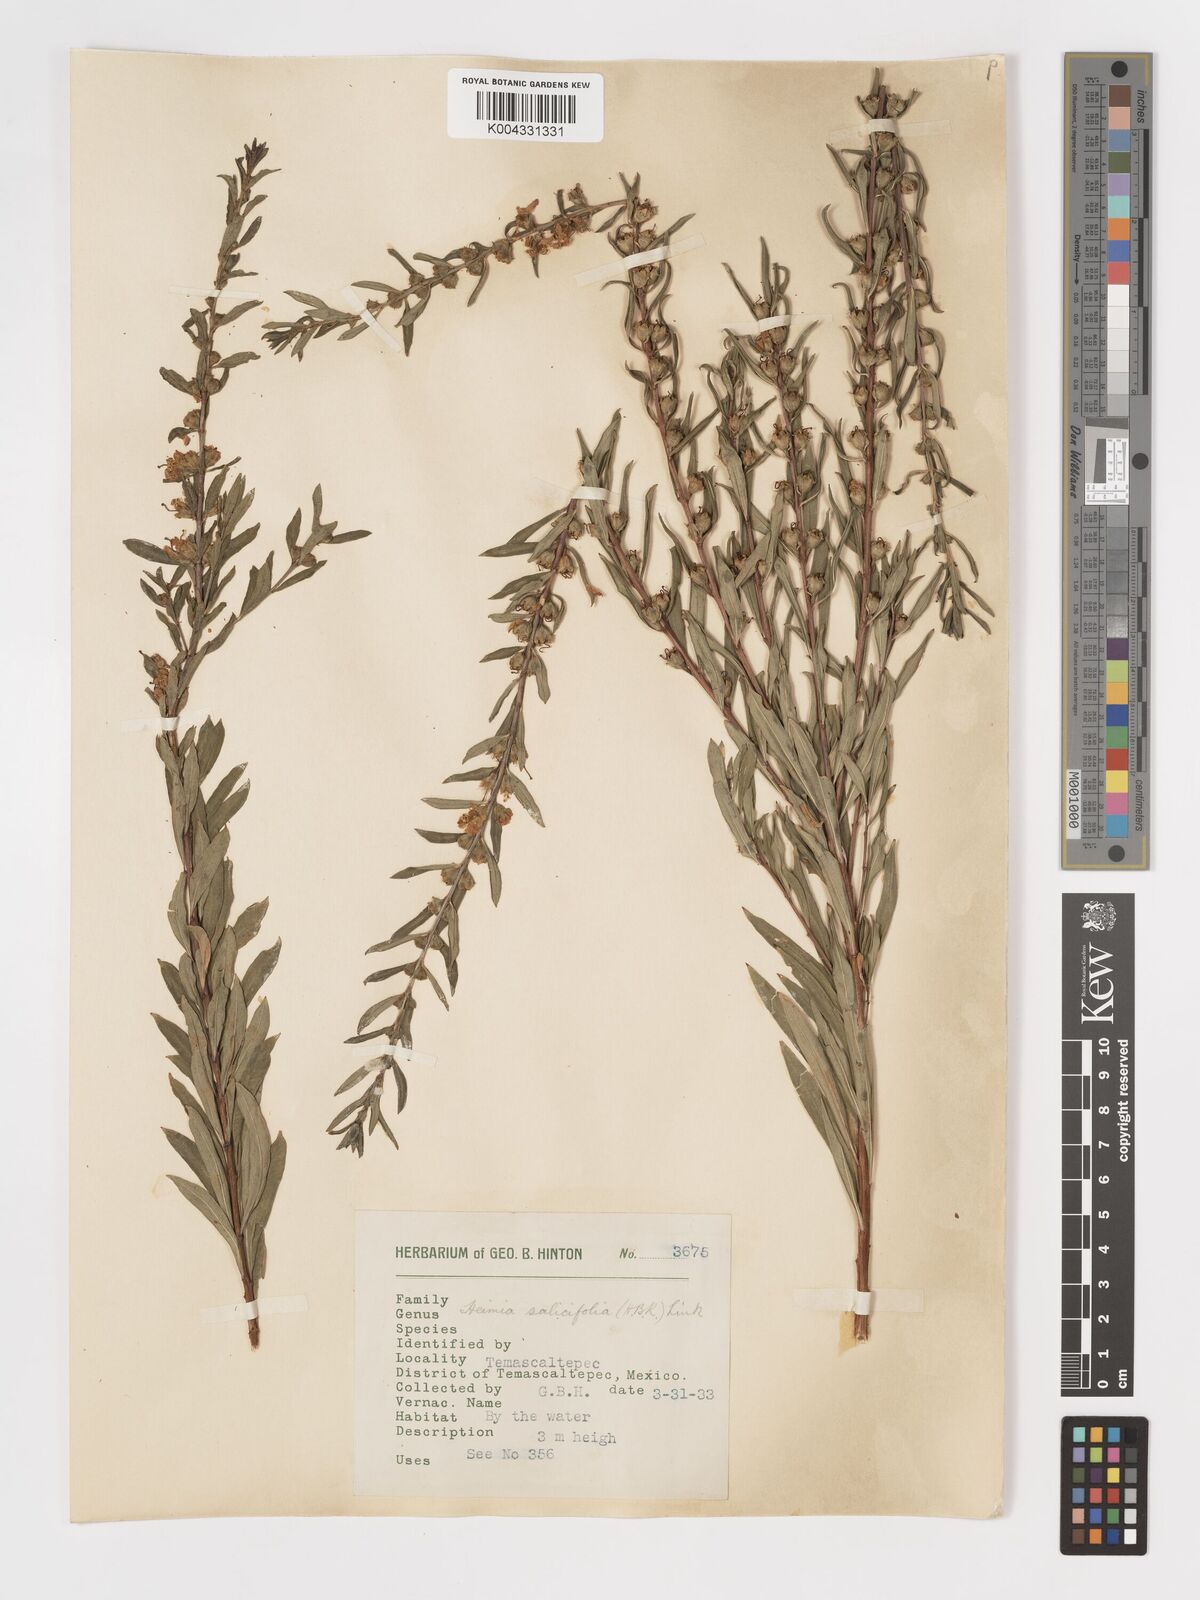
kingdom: Plantae
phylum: Tracheophyta
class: Magnoliopsida
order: Myrtales
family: Lythraceae
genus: Heimia
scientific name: Heimia salicifolia
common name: Willow-leaf heimia
